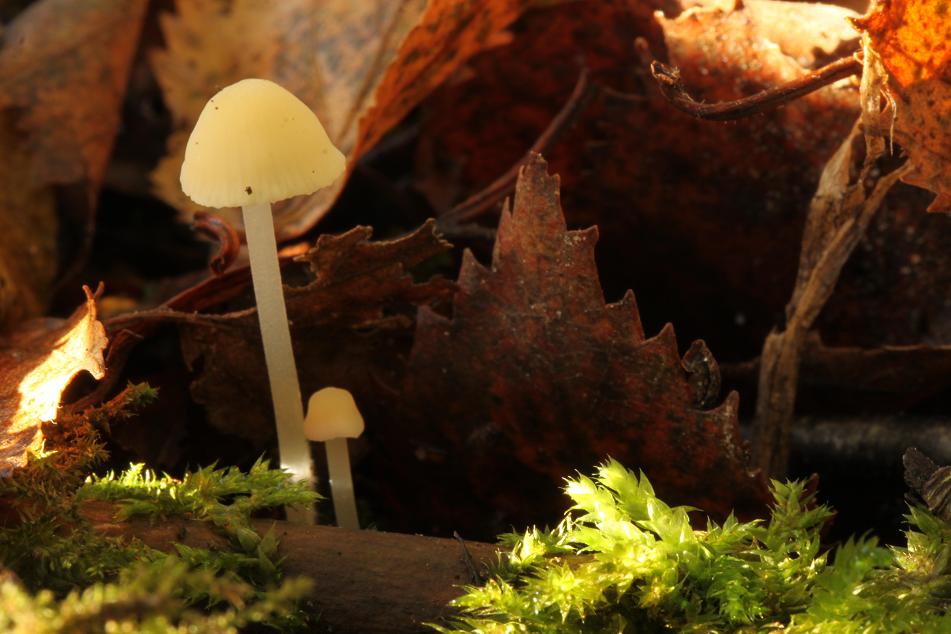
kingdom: Fungi
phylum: Basidiomycota
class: Agaricomycetes
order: Agaricales
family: Mycenaceae
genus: Atheniella
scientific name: Atheniella flavoalba
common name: gulhvid huesvamp
